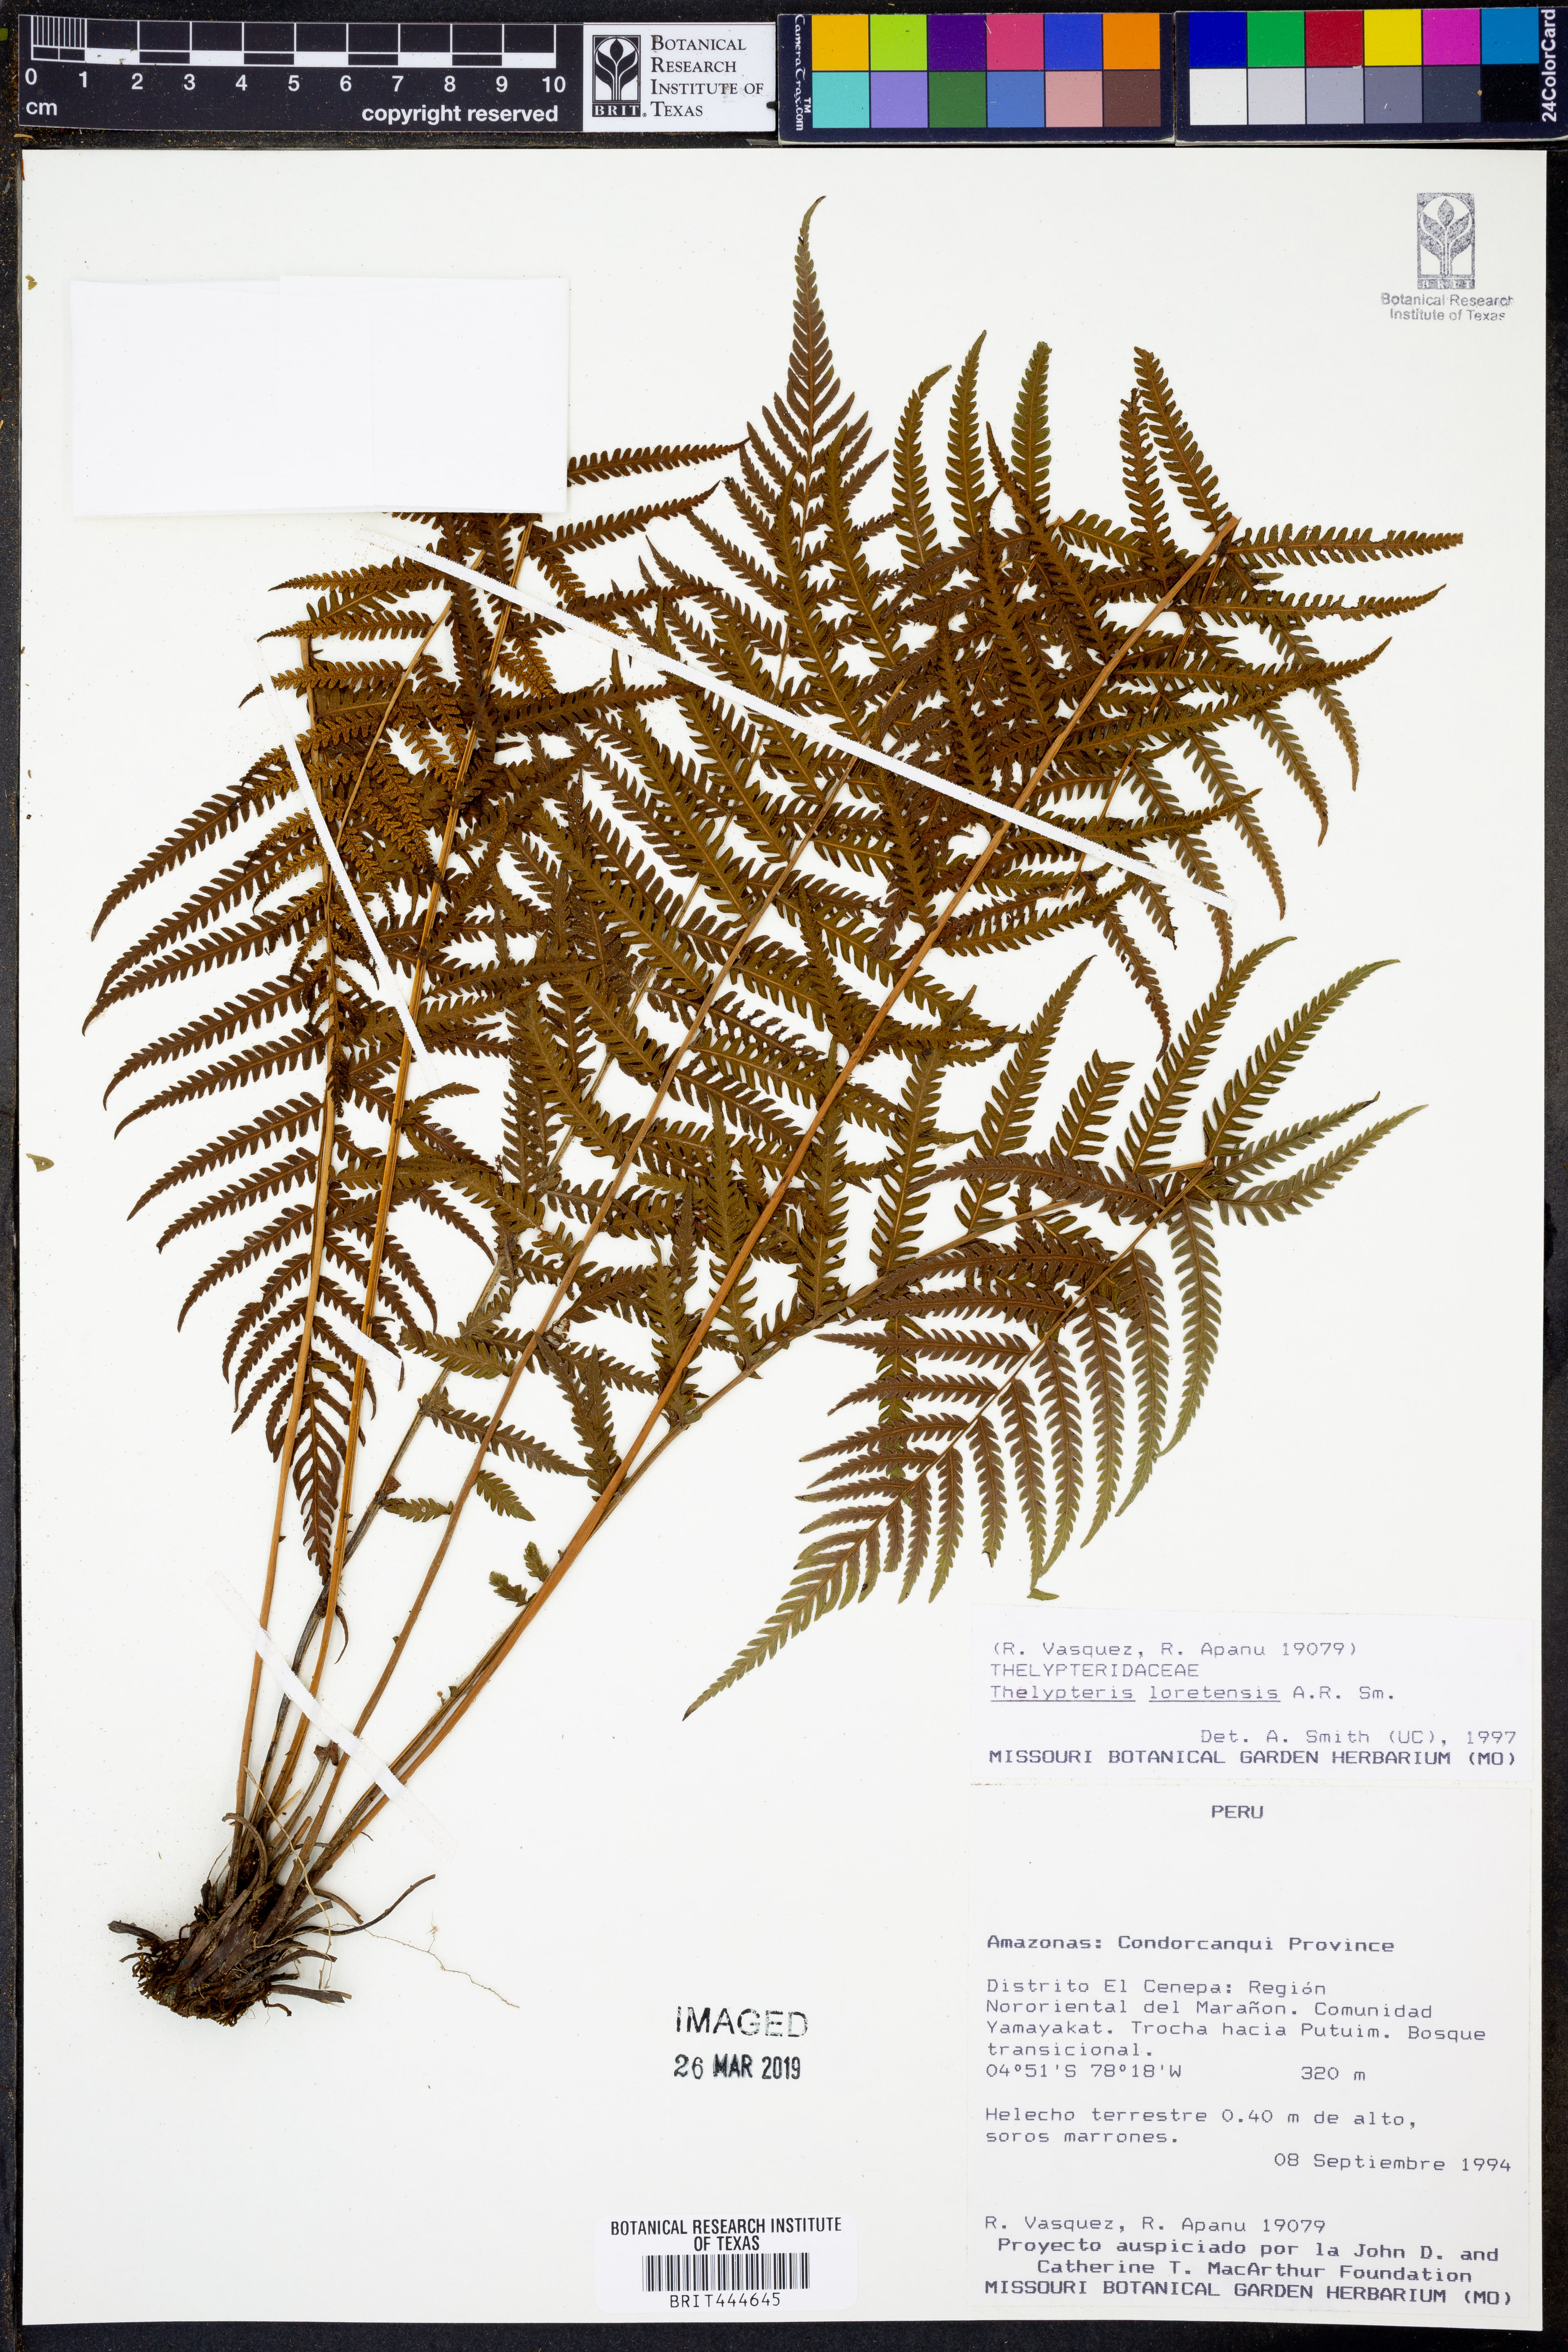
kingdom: Plantae
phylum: Tracheophyta
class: Polypodiopsida
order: Polypodiales
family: Thelypteridaceae
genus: Amauropelta
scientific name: Amauropelta loretensis
